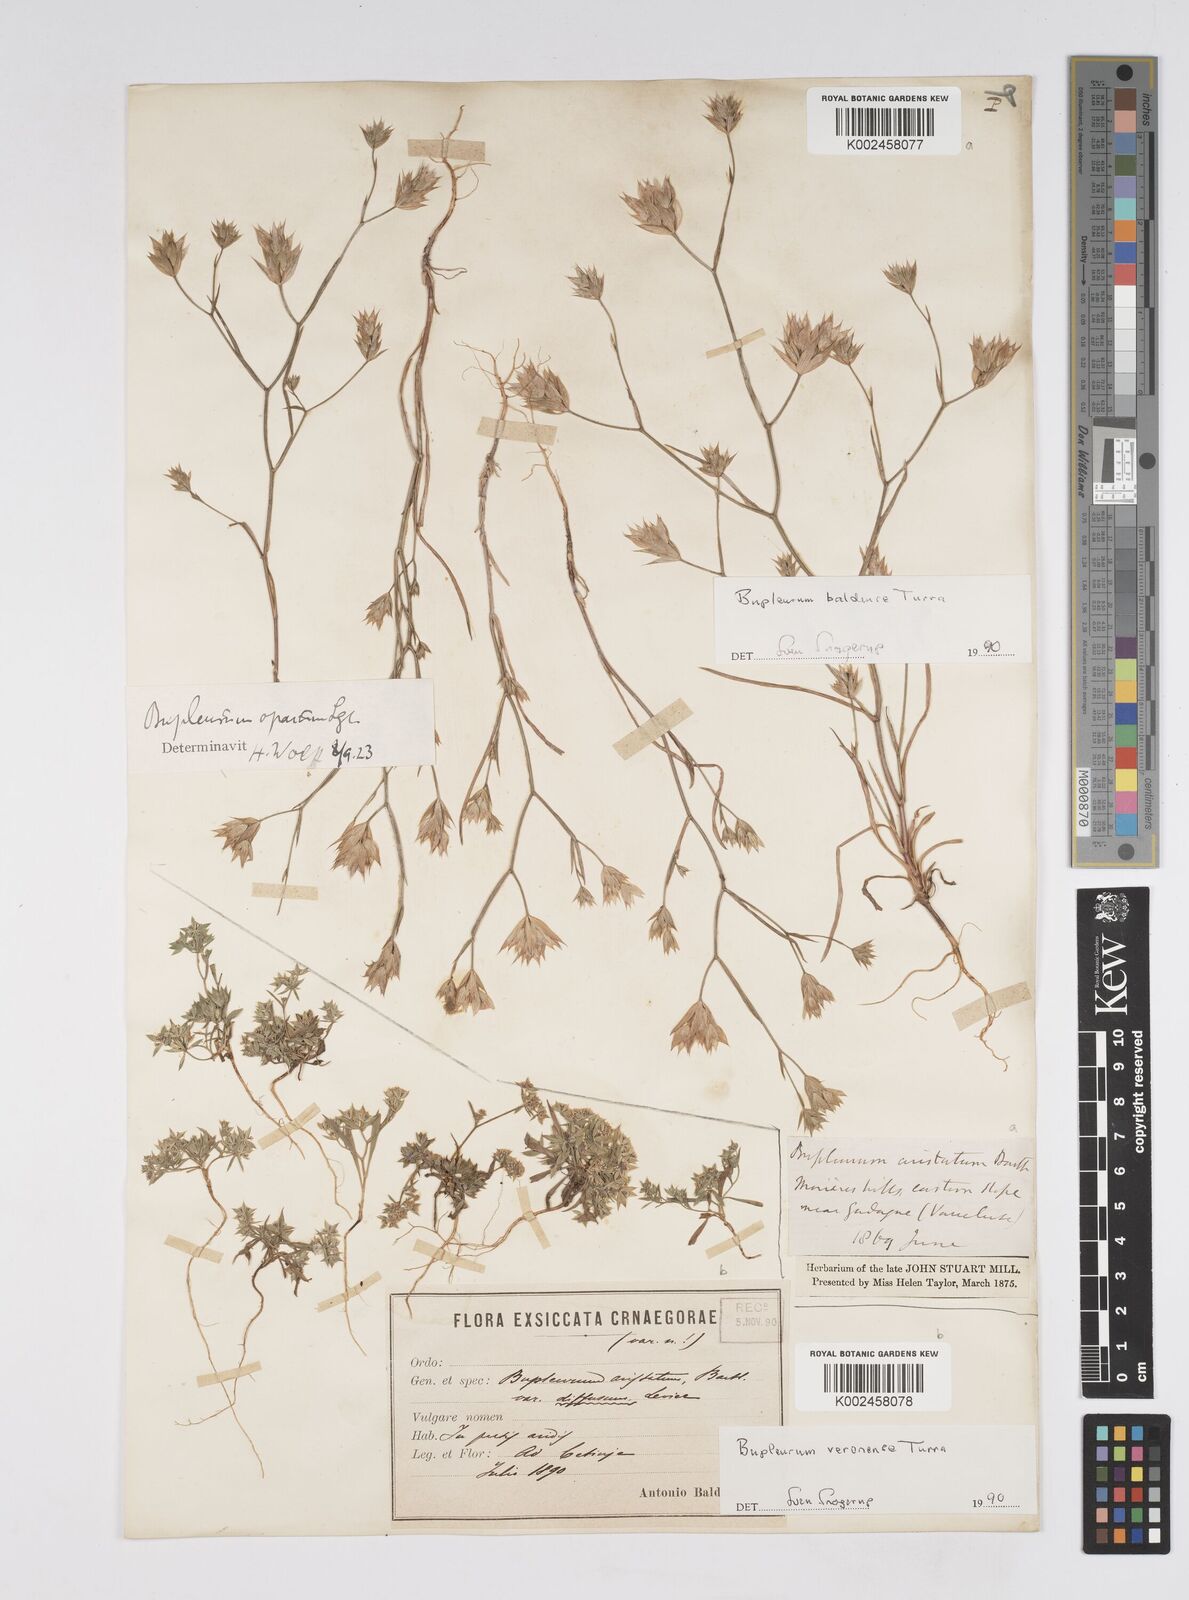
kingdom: Plantae
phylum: Tracheophyta
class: Magnoliopsida
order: Apiales
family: Apiaceae
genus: Bupleurum
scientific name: Bupleurum baldense
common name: Small hare's-ear
